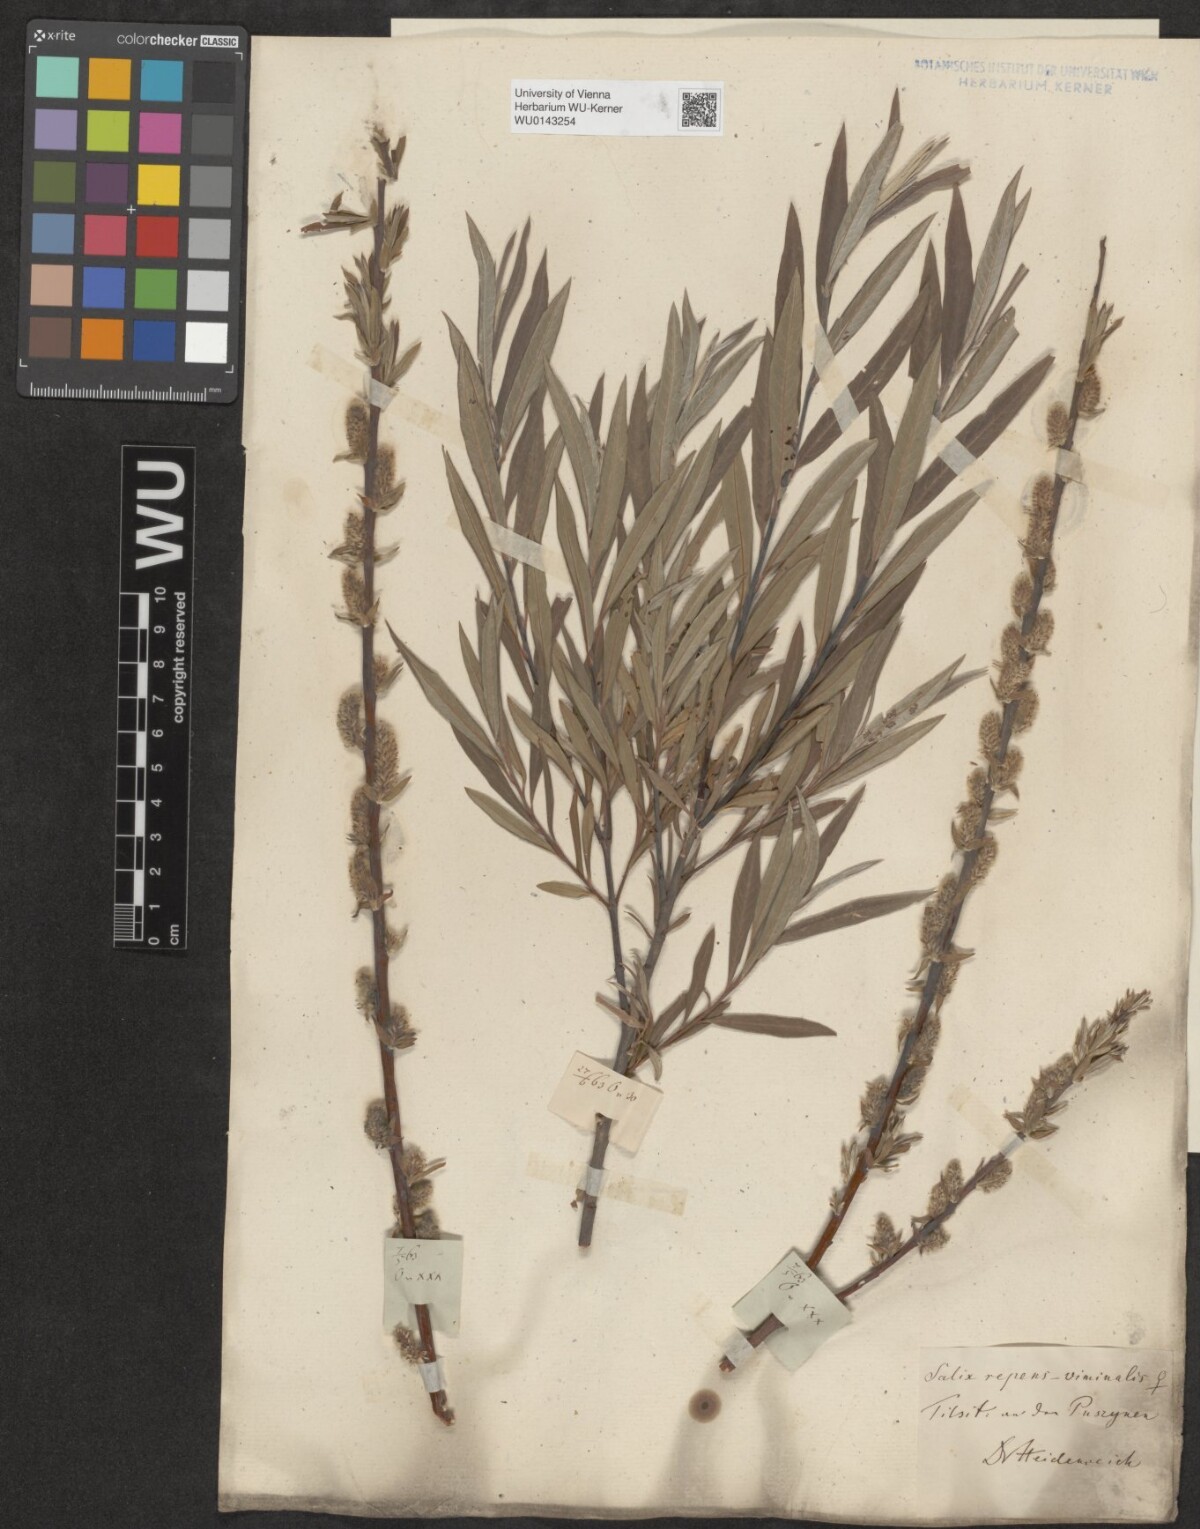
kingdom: Plantae
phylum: Tracheophyta
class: Magnoliopsida
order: Malpighiales
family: Salicaceae
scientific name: Salicaceae
